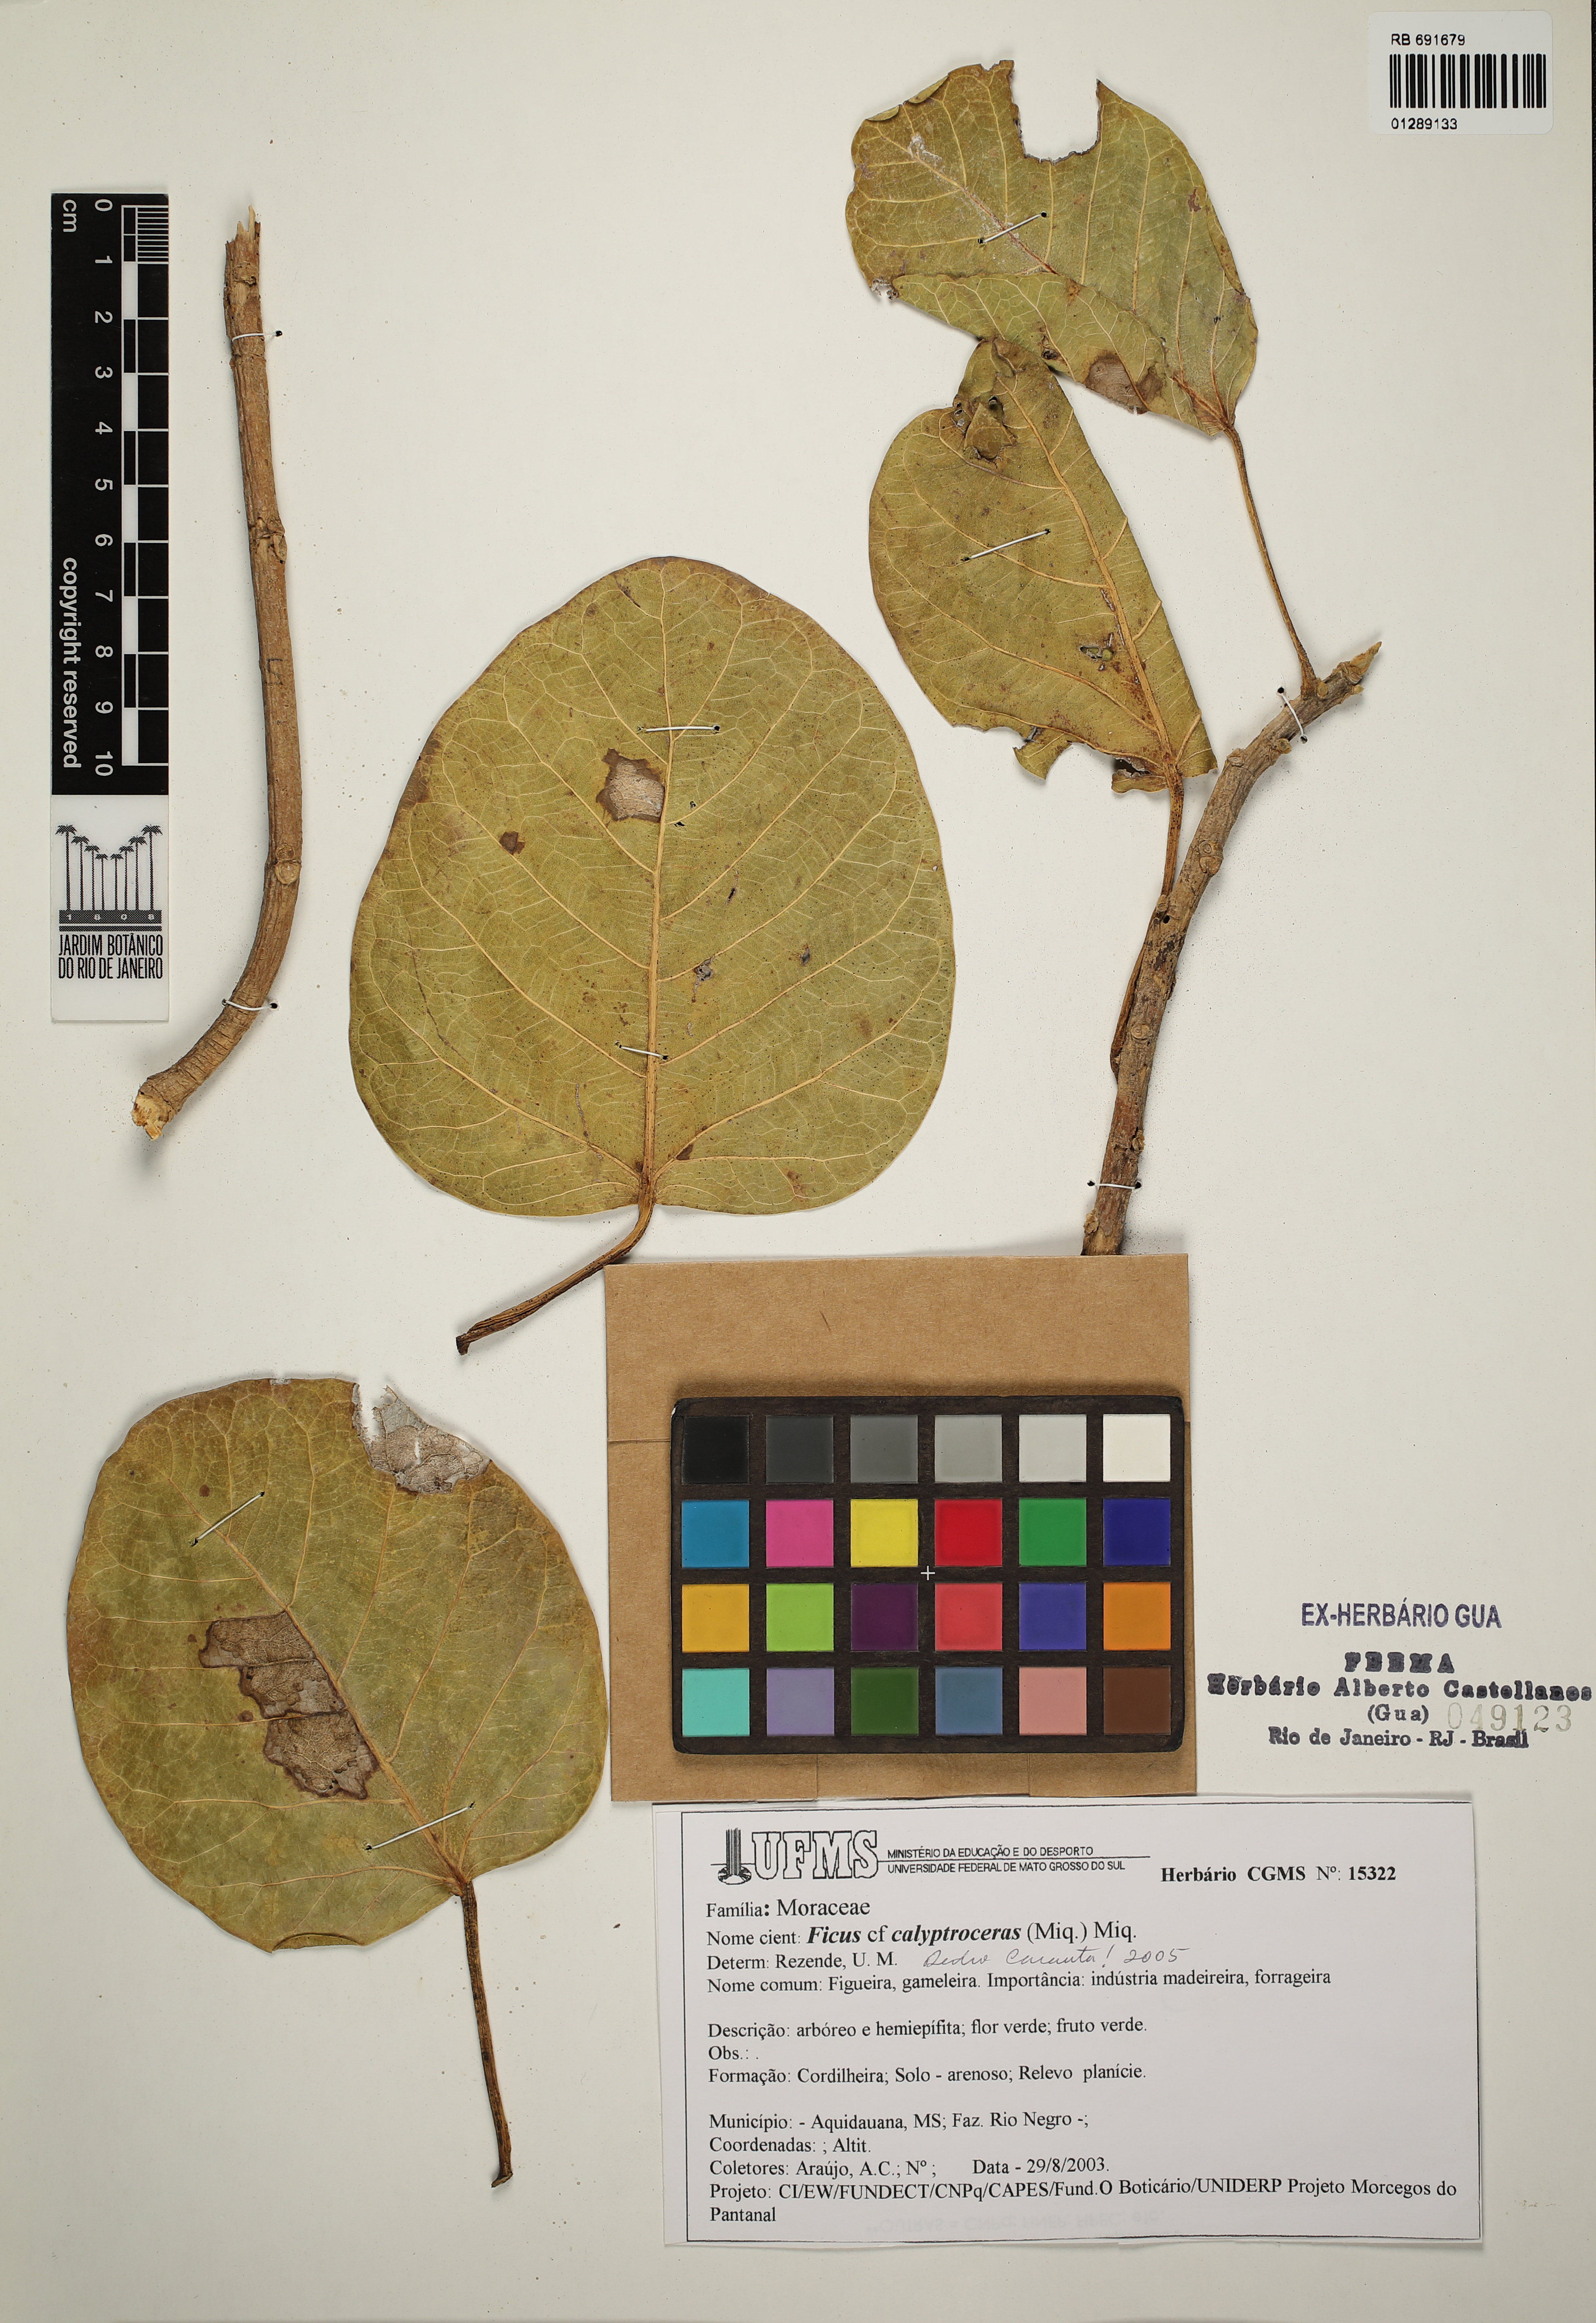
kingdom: Plantae
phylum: Tracheophyta
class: Magnoliopsida
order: Rosales
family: Moraceae
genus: Ficus
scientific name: Ficus calyptroceras
